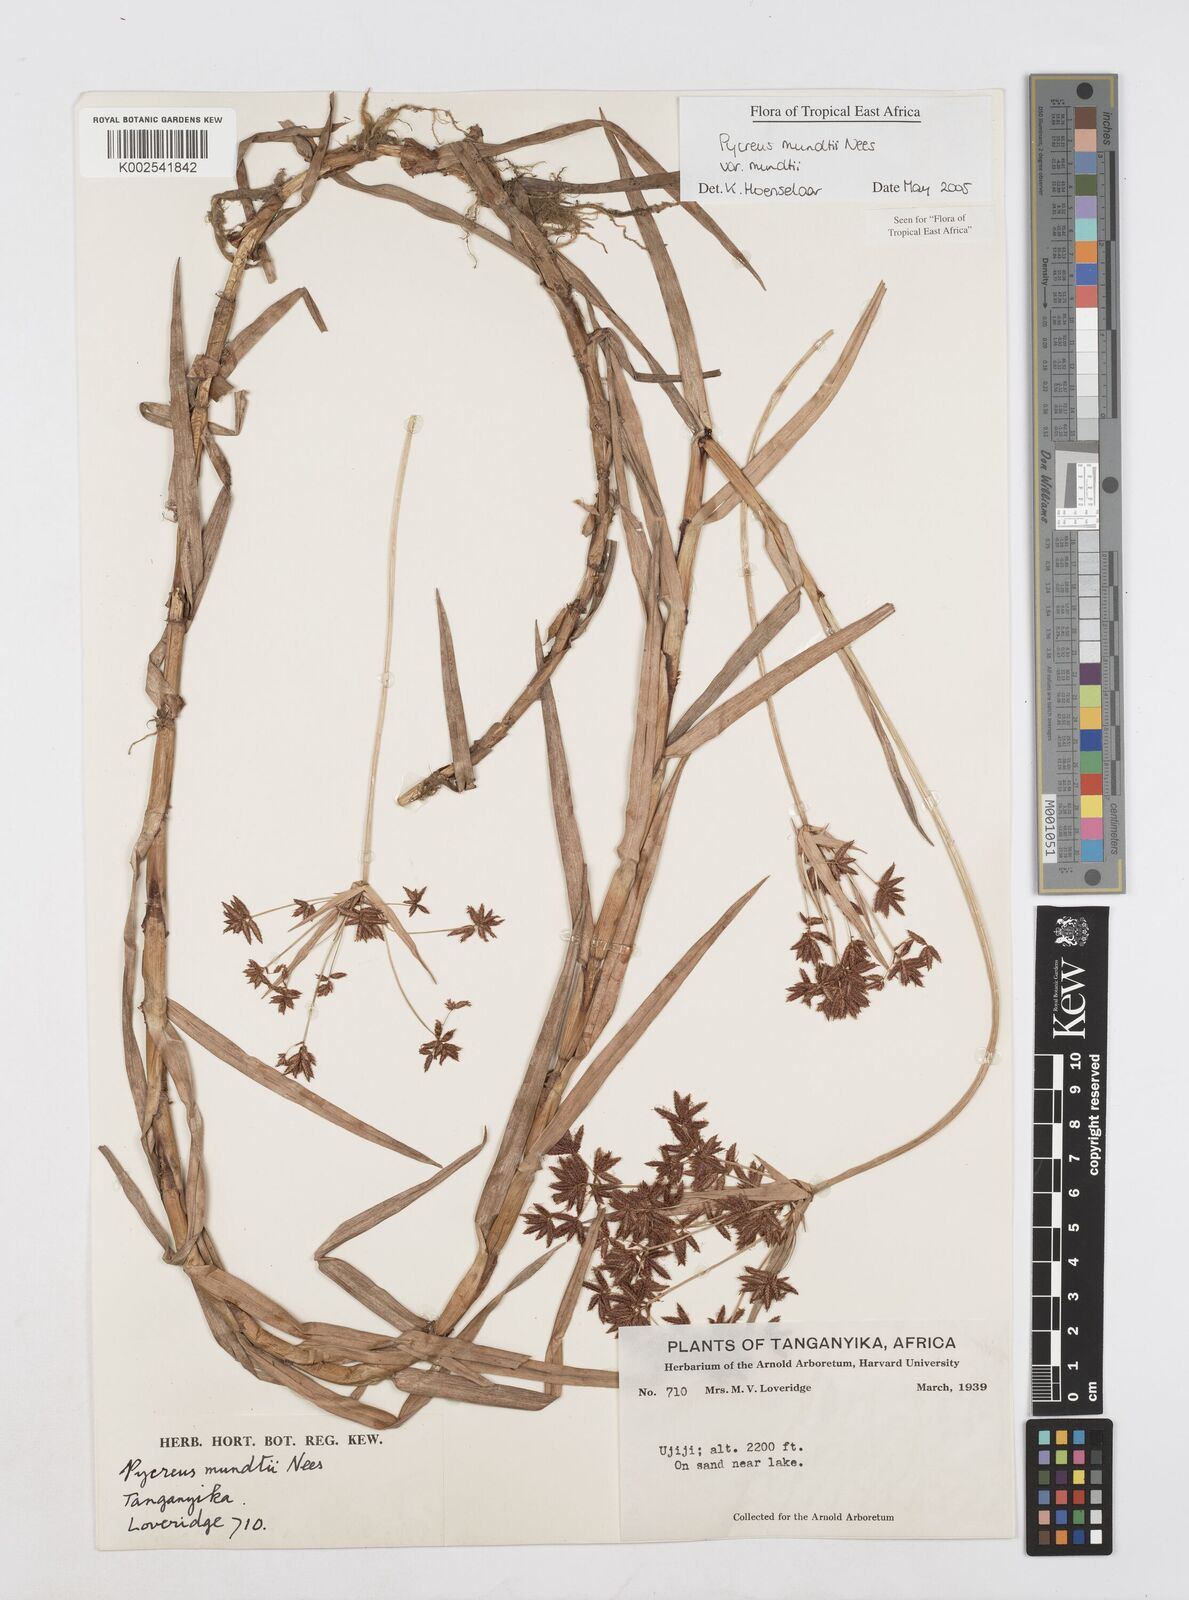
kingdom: Plantae
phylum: Tracheophyta
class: Liliopsida
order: Poales
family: Cyperaceae
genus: Cyperus
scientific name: Cyperus mundii
